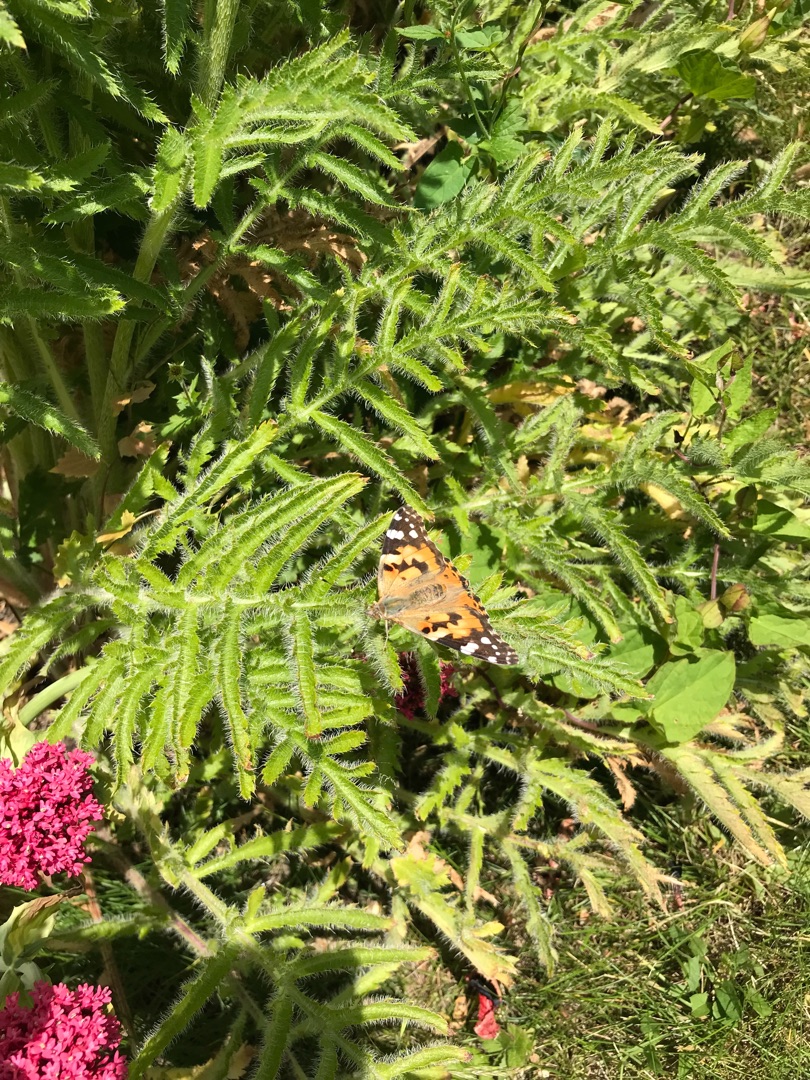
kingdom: Animalia
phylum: Arthropoda
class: Insecta
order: Lepidoptera
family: Nymphalidae
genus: Vanessa
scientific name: Vanessa cardui
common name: Tidselsommerfugl
